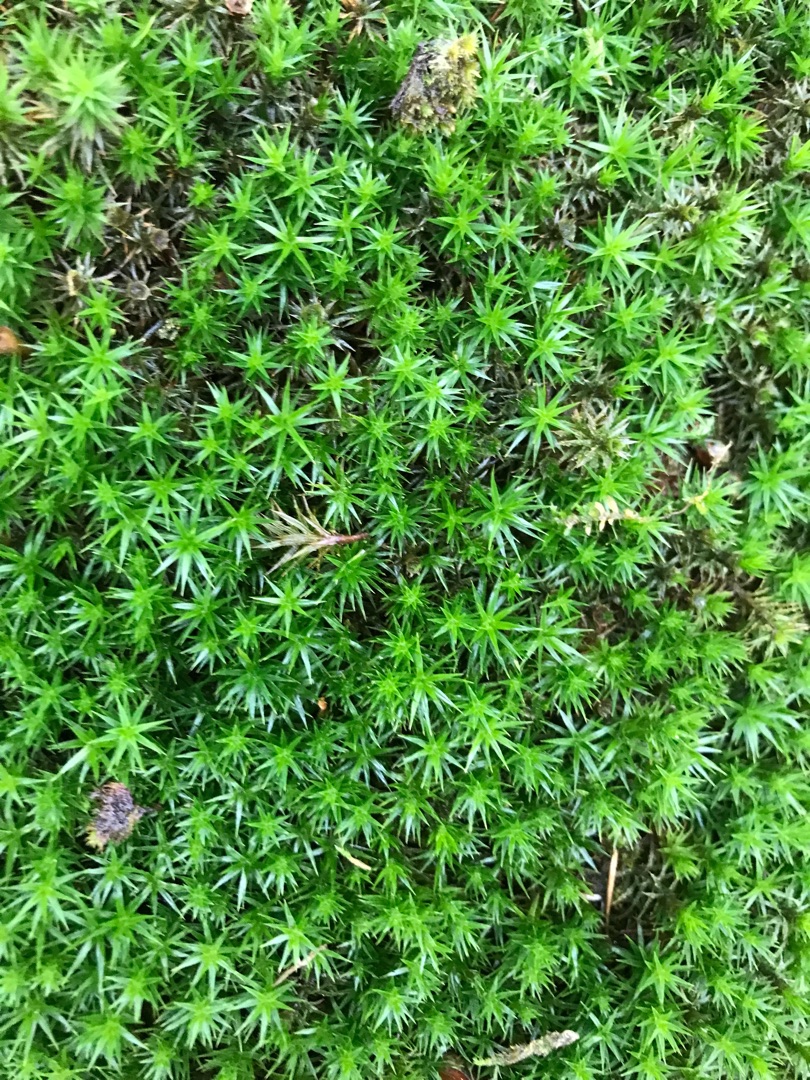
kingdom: Plantae
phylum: Bryophyta
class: Polytrichopsida
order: Polytrichales
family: Polytrichaceae
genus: Polytrichum
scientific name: Polytrichum juniperinum
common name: Ene-jomfruhår
